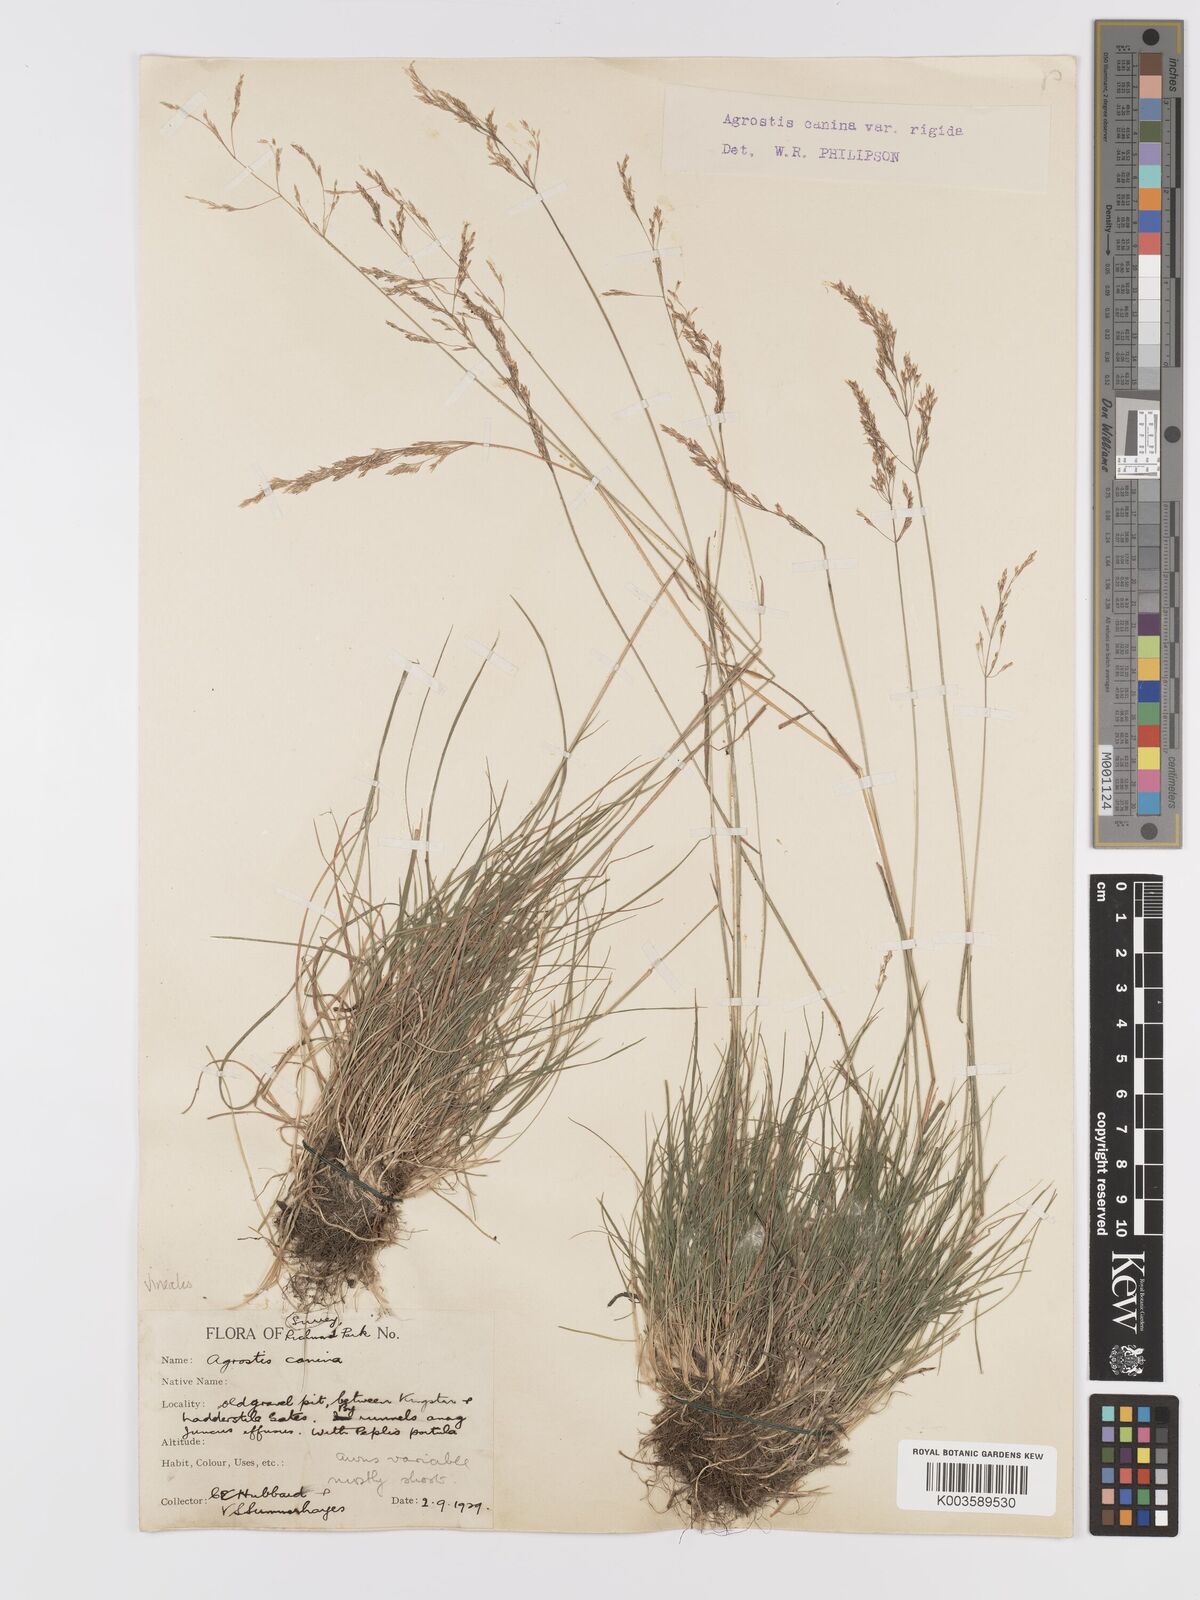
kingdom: Plantae
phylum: Tracheophyta
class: Liliopsida
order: Poales
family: Poaceae
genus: Agrostis
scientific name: Agrostis
